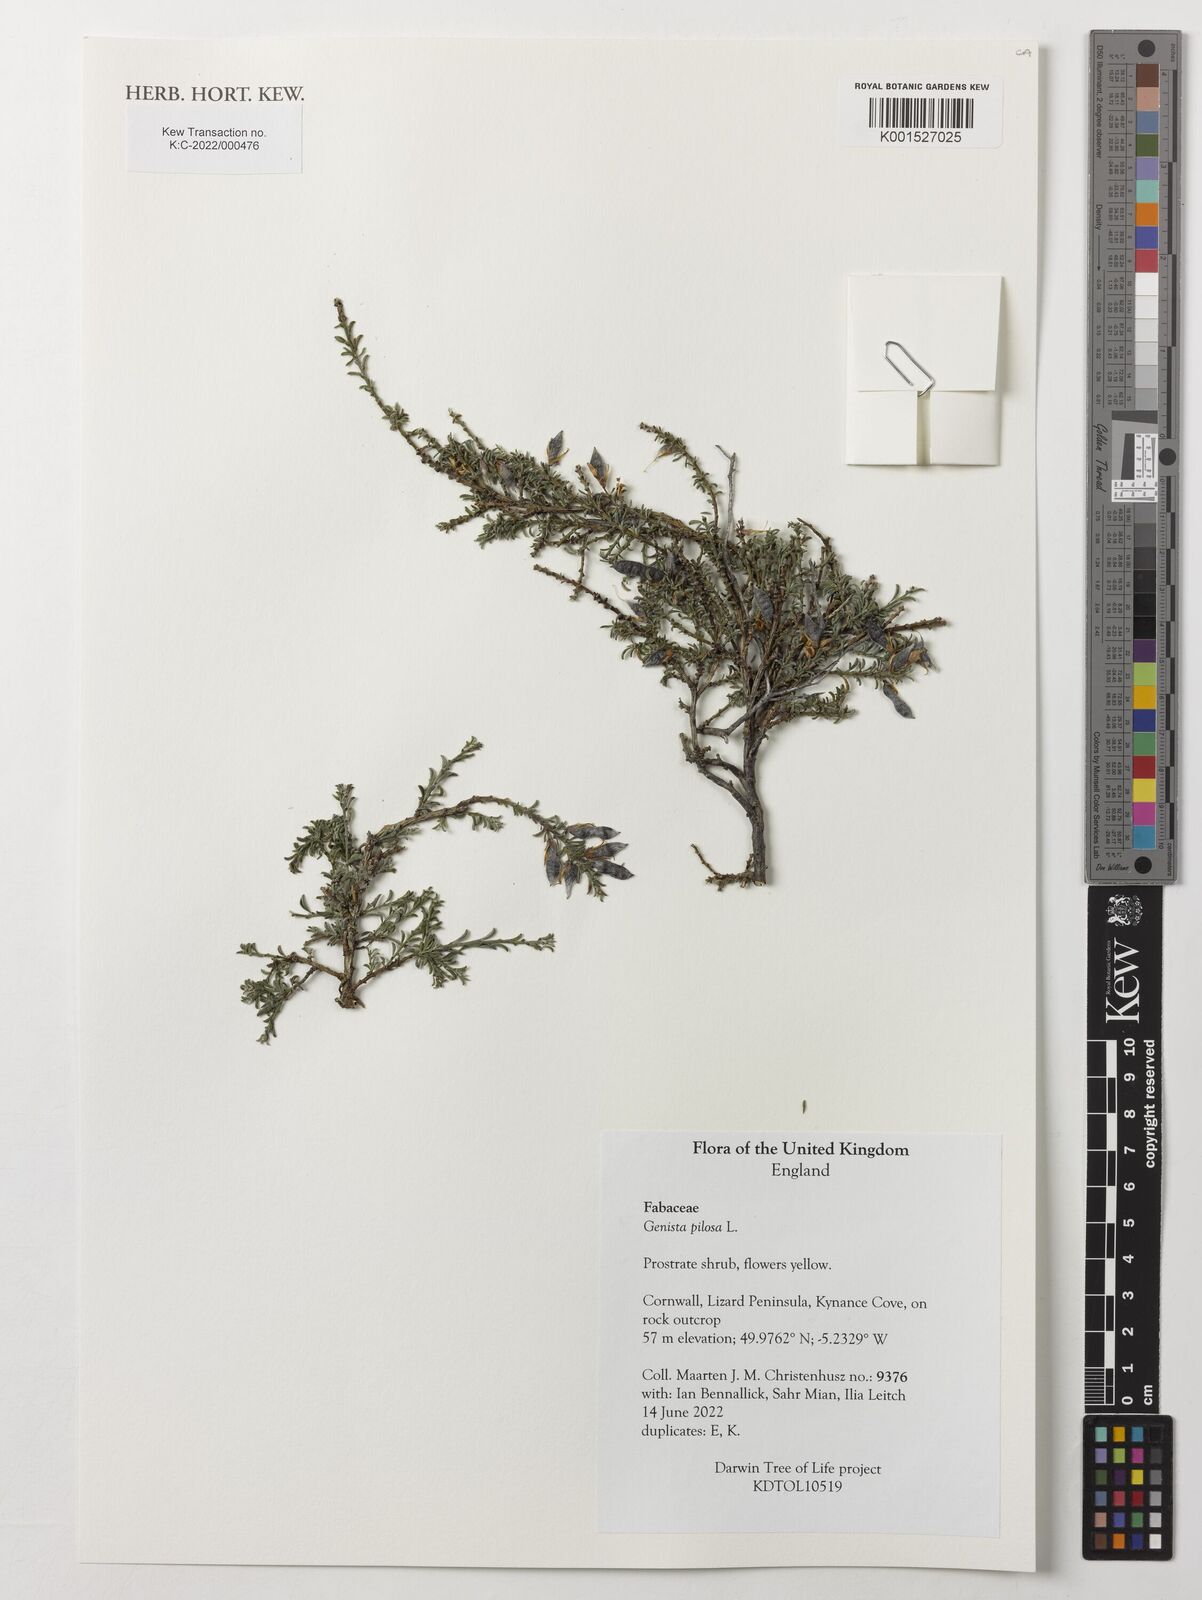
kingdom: Plantae
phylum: Tracheophyta
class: Magnoliopsida
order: Fabales
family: Fabaceae
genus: Genista
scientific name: Genista pilosa
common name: Hairy greenweed
